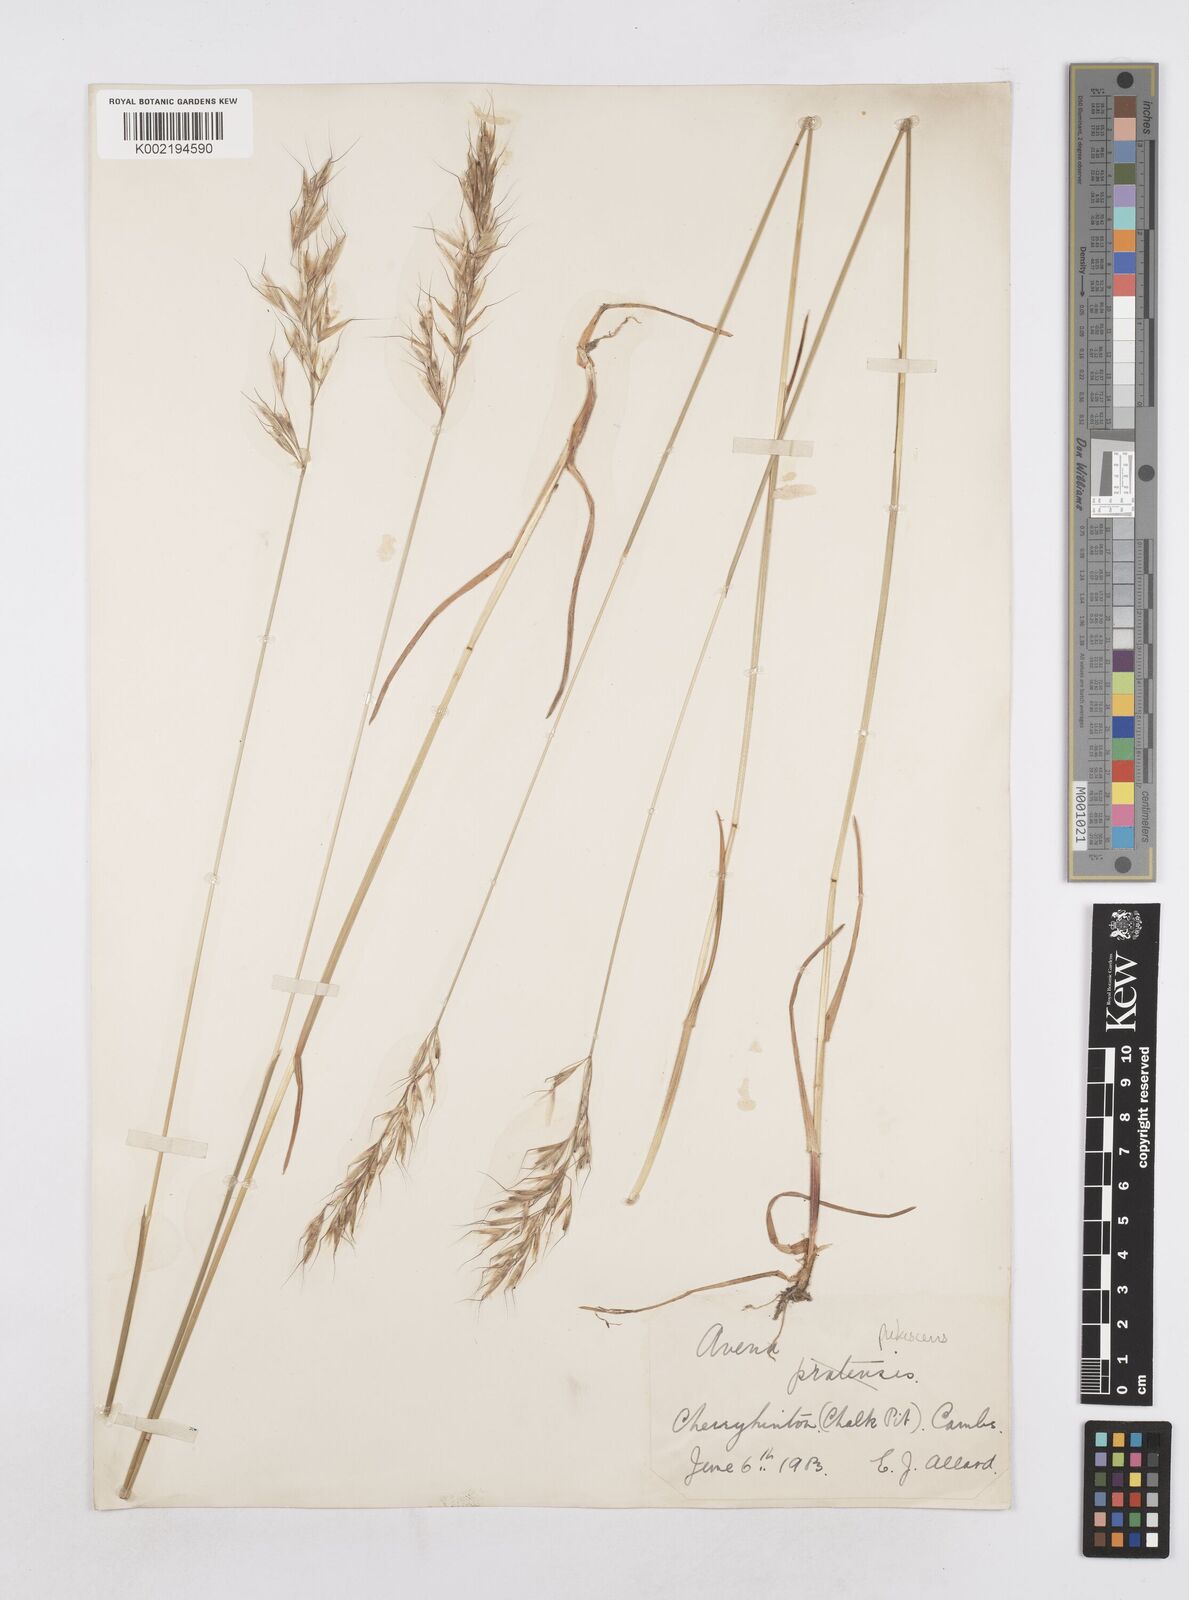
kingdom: Plantae
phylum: Tracheophyta
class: Liliopsida
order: Poales
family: Poaceae
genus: Avenula
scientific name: Avenula pubescens
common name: Downy alpine oatgrass
